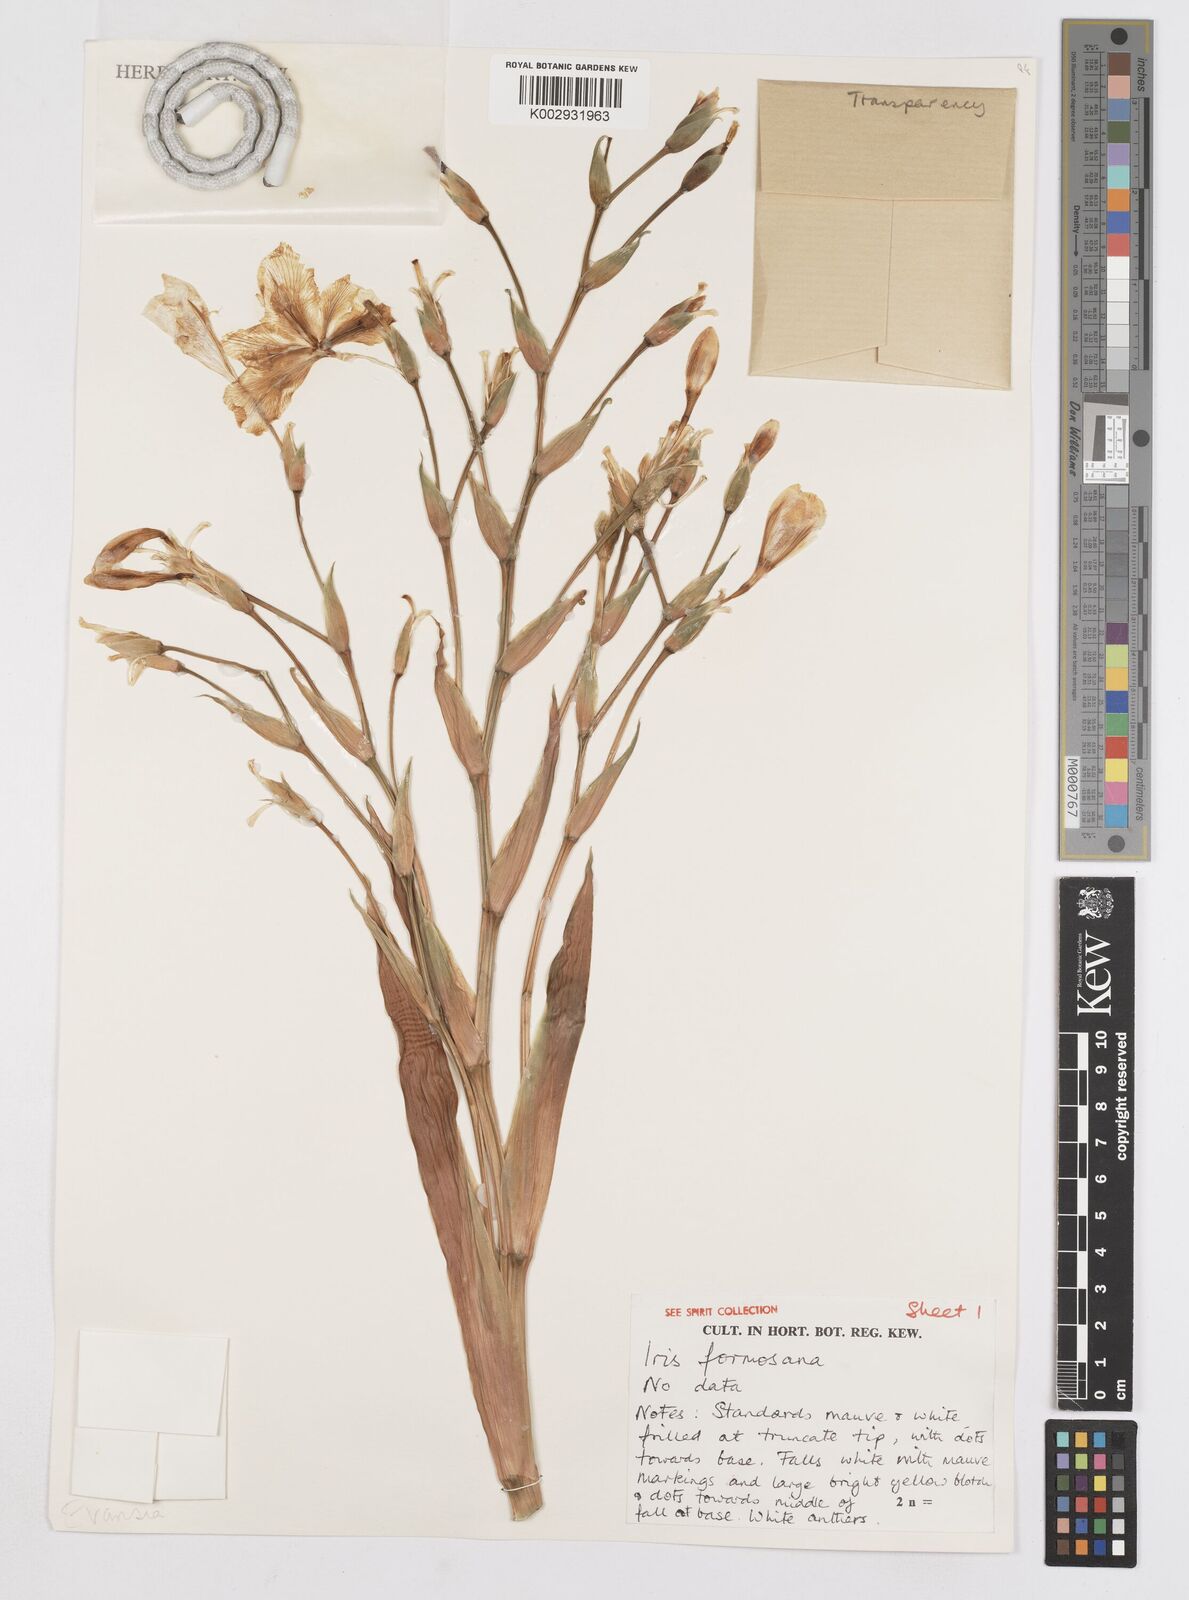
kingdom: Plantae
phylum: Tracheophyta
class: Liliopsida
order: Asparagales
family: Iridaceae
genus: Iris
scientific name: Iris formosana
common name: Taiwan iris
